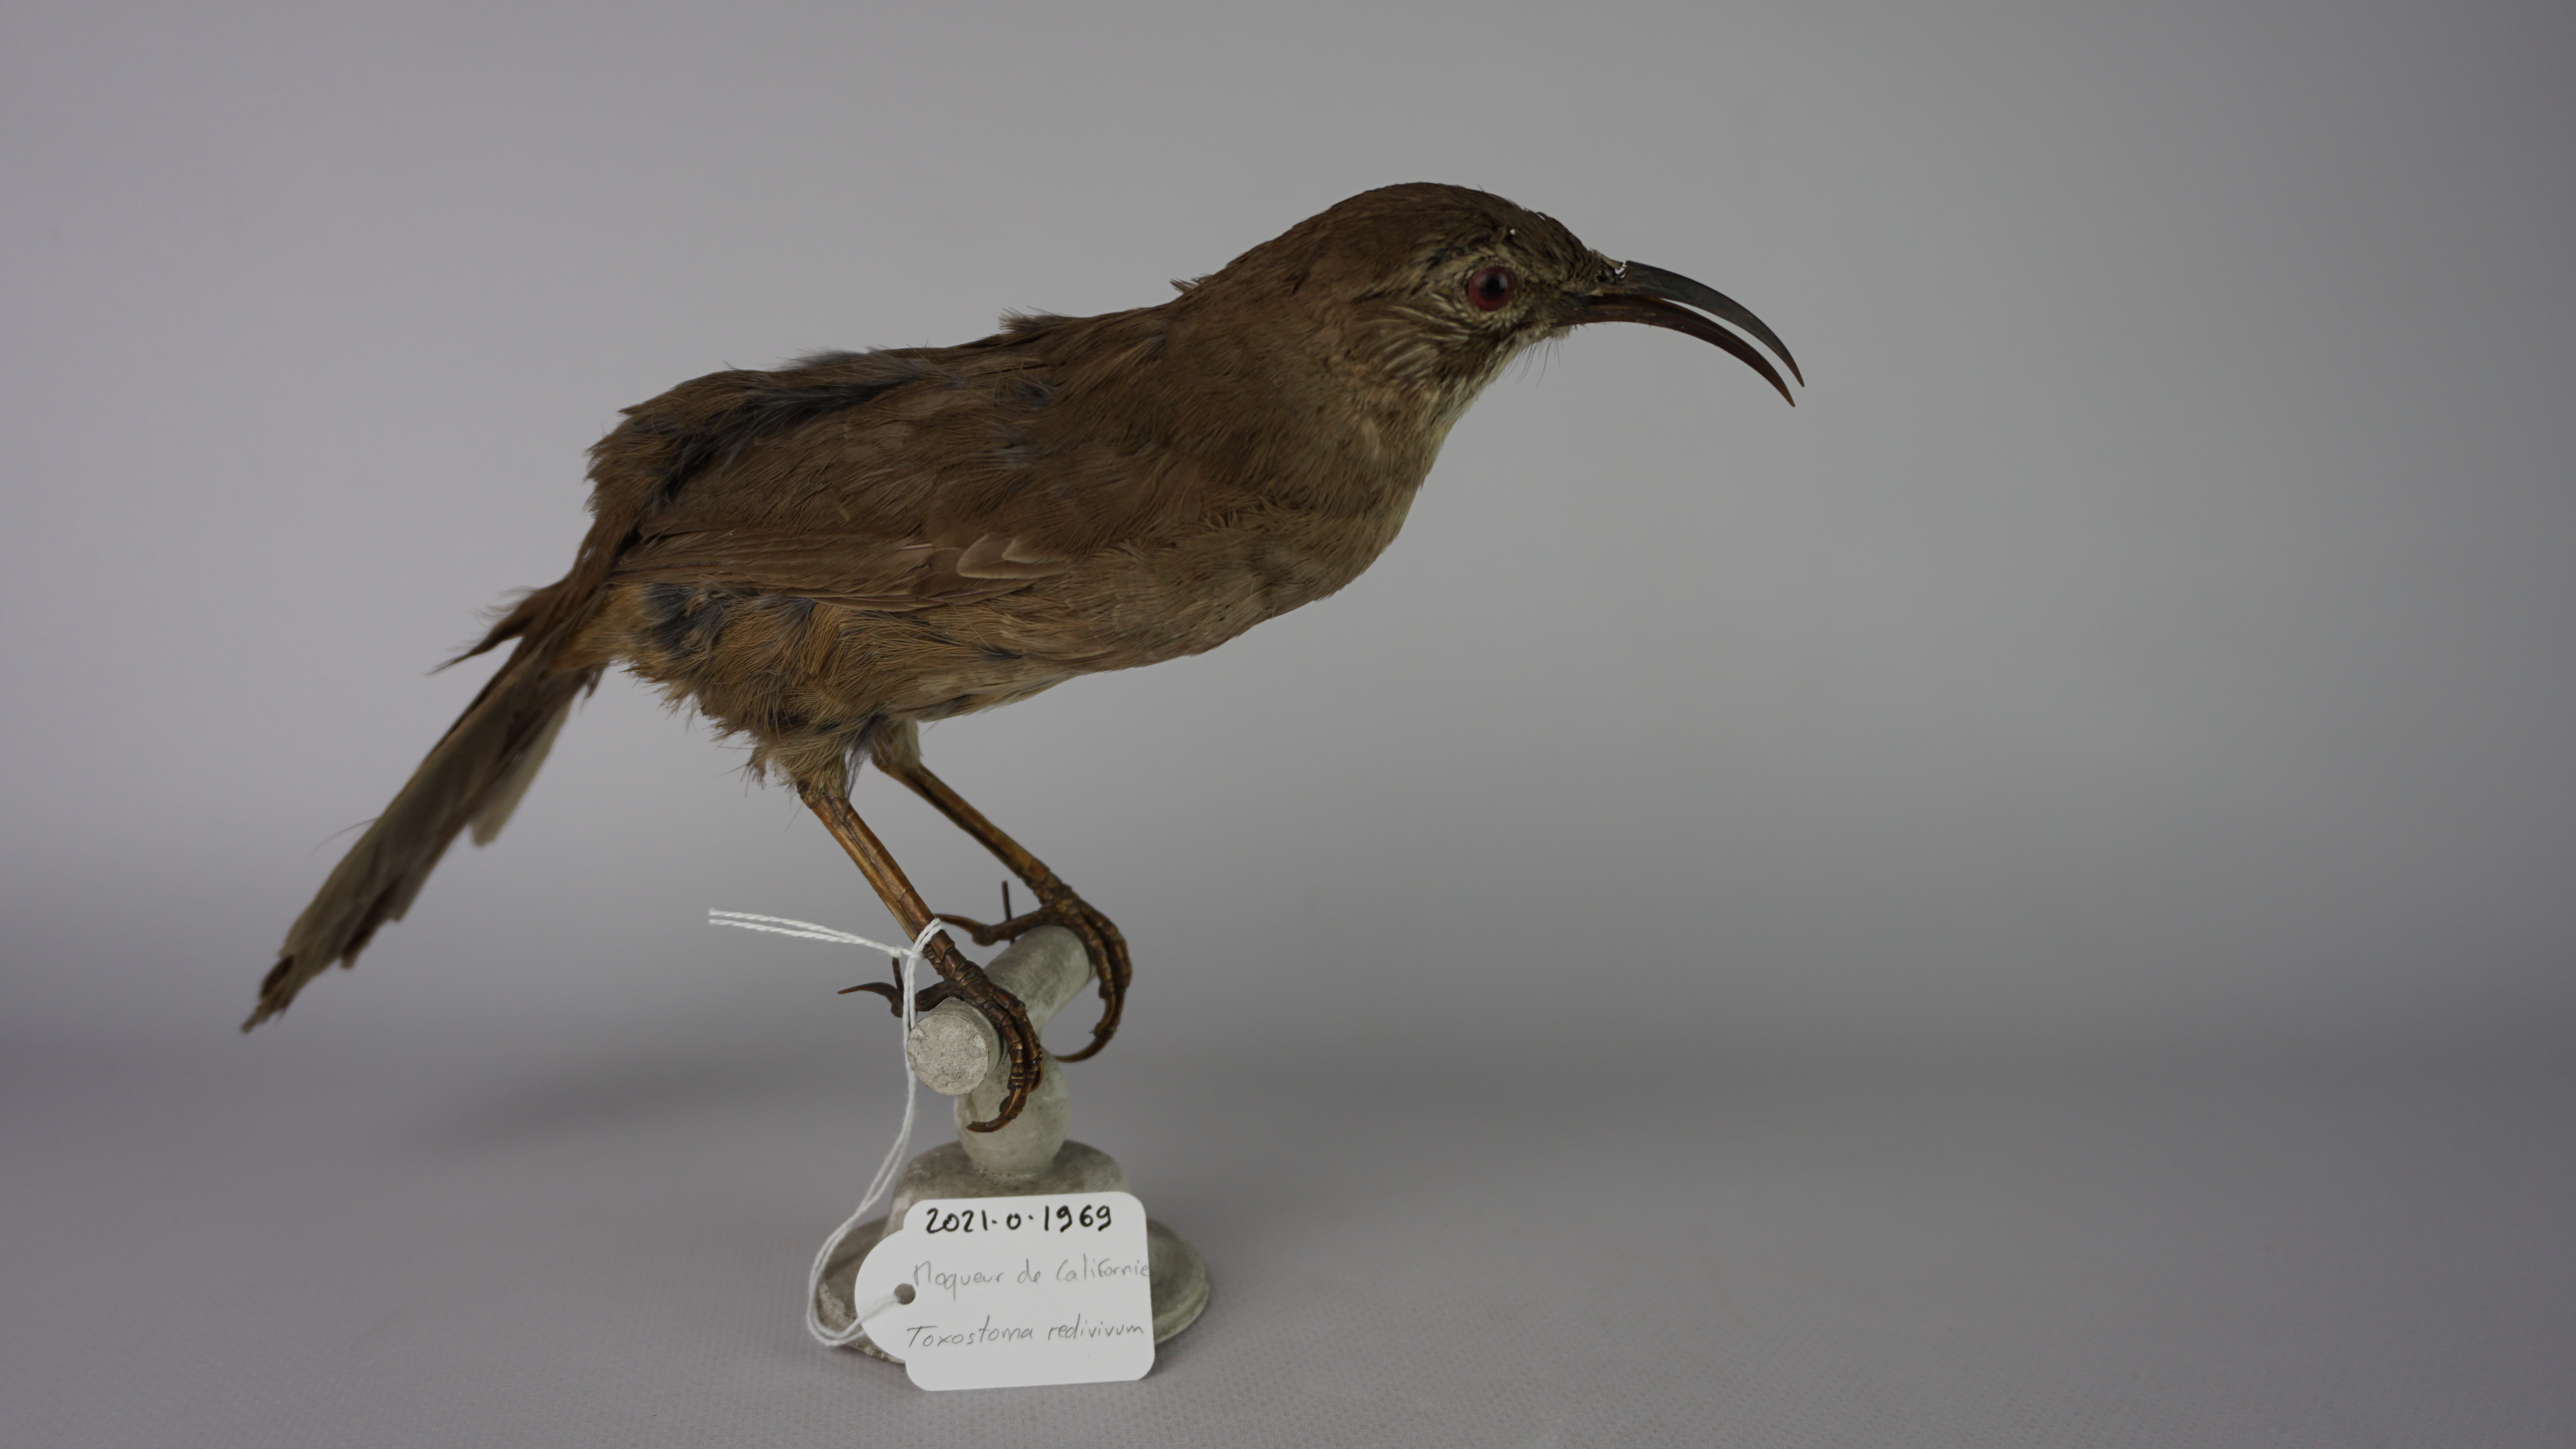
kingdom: Animalia
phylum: Chordata
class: Aves
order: Passeriformes
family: Mimidae
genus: Toxostoma
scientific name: Toxostoma redivivum
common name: California thrasher
